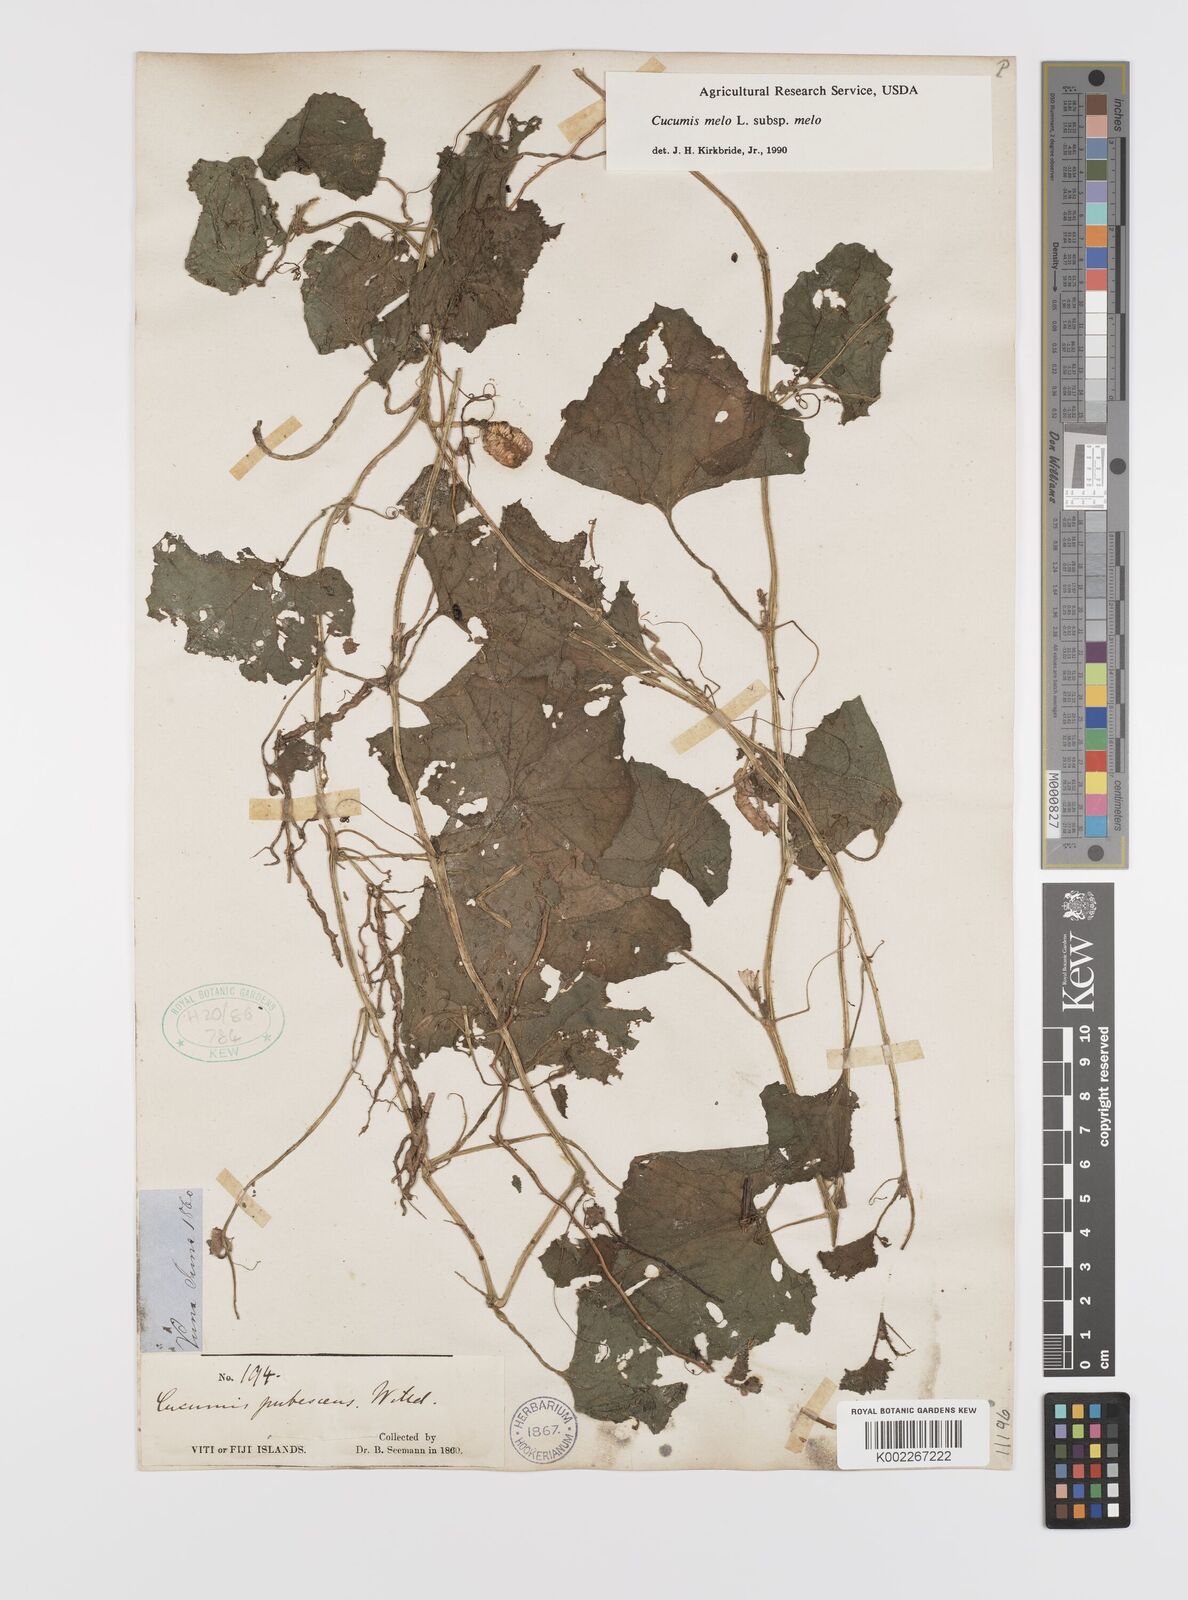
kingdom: Plantae
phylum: Tracheophyta
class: Magnoliopsida
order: Cucurbitales
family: Cucurbitaceae
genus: Cucumis
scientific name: Cucumis melo
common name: Melon
